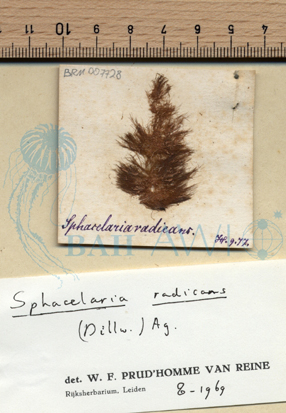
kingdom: Chromista
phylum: Ochrophyta
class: Phaeophyceae
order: Sphacelariales
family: Stypocaulaceae
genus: Protohalopteris
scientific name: Protohalopteris radicans
